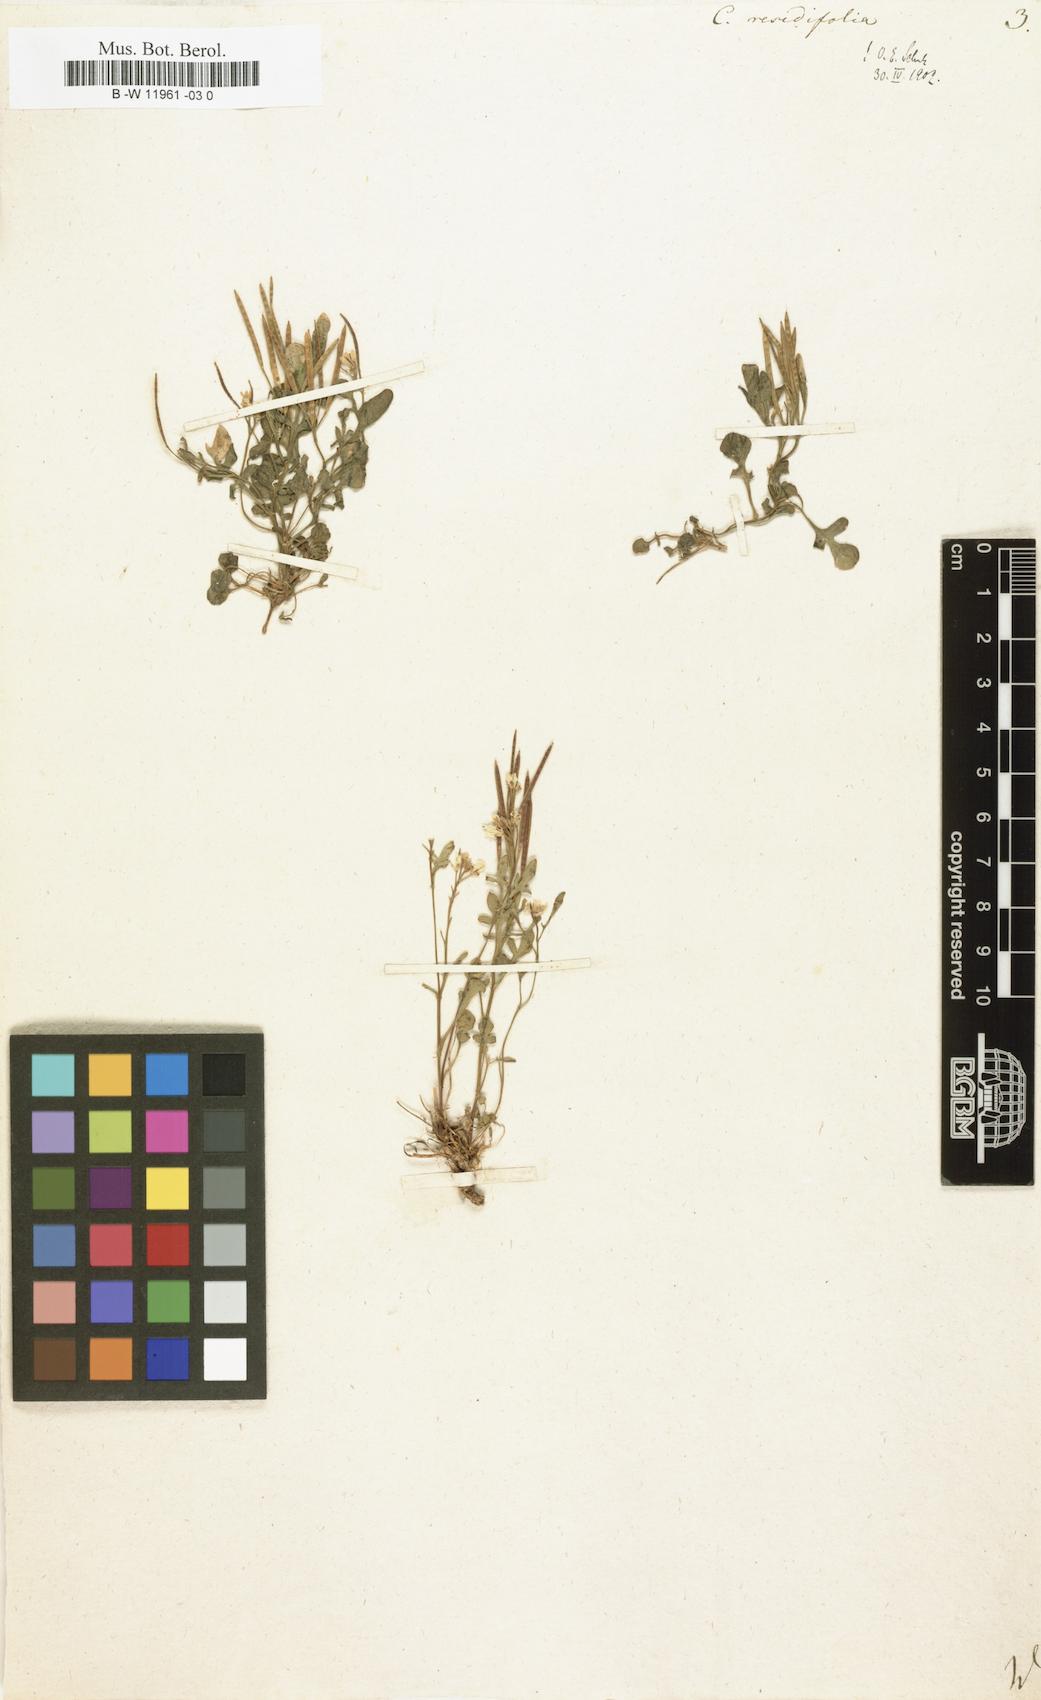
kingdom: Plantae
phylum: Tracheophyta
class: Magnoliopsida
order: Brassicales
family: Brassicaceae
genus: Cardamine
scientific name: Cardamine resedifolia
